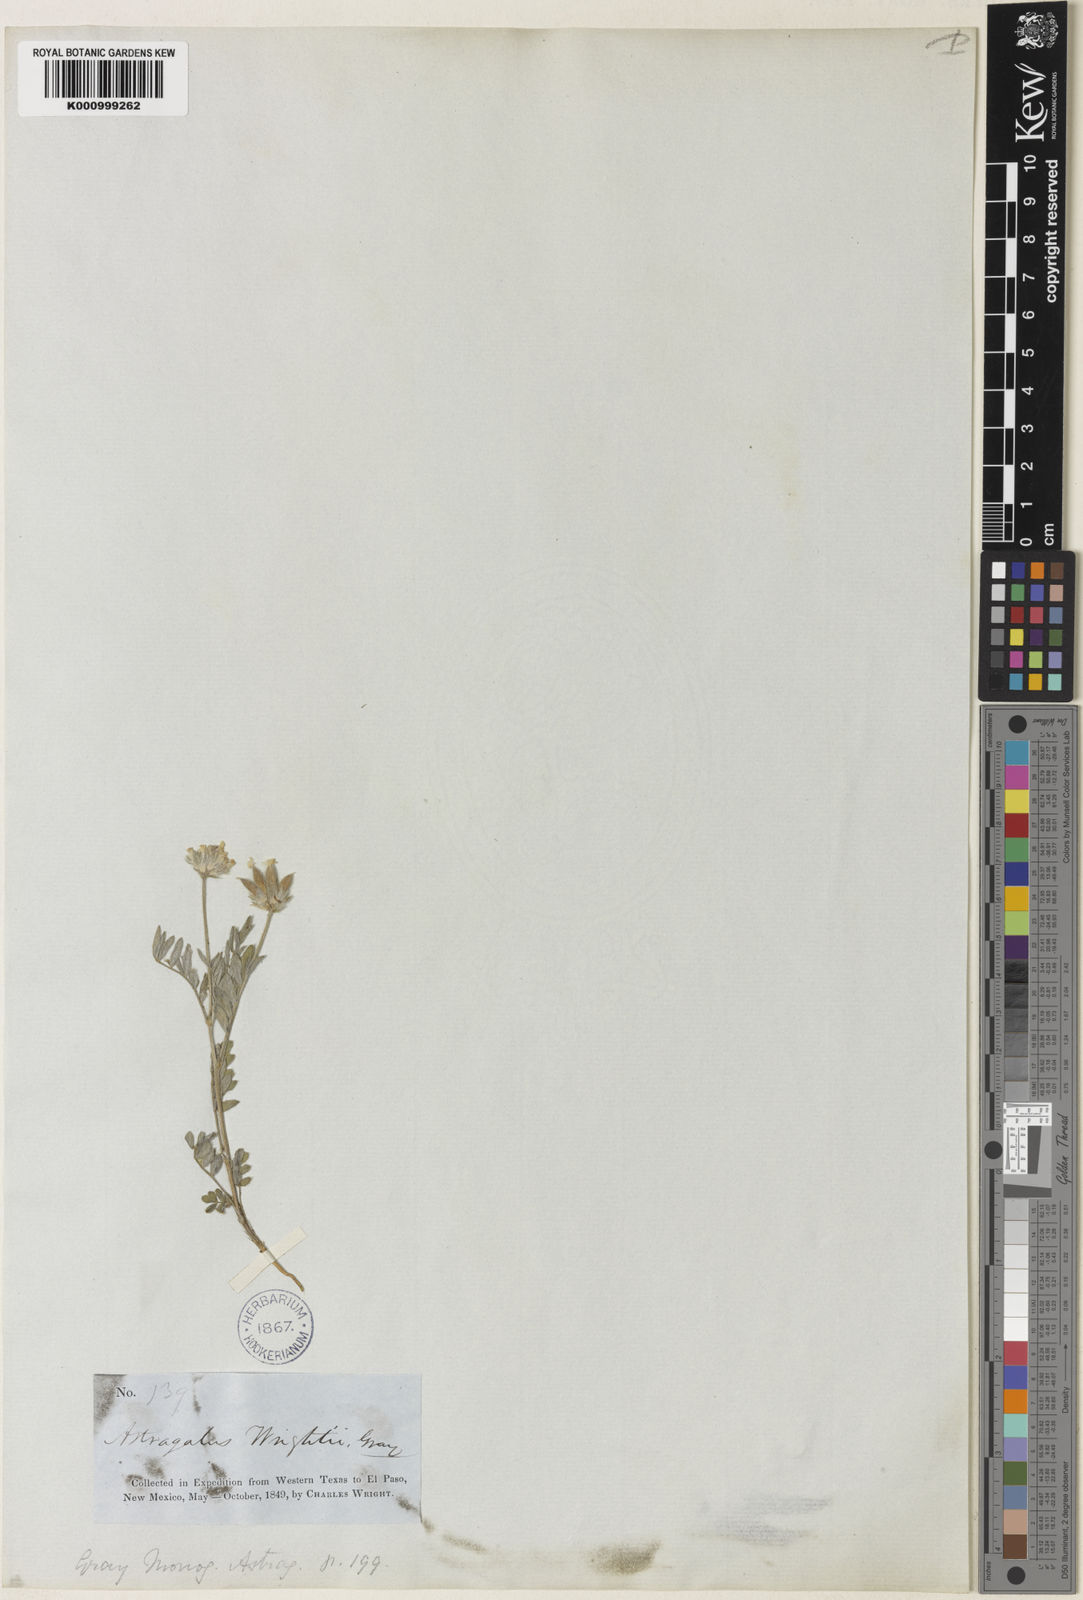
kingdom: Plantae
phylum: Tracheophyta
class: Magnoliopsida
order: Fabales
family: Fabaceae
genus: Astragalus
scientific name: Astragalus wrightii
